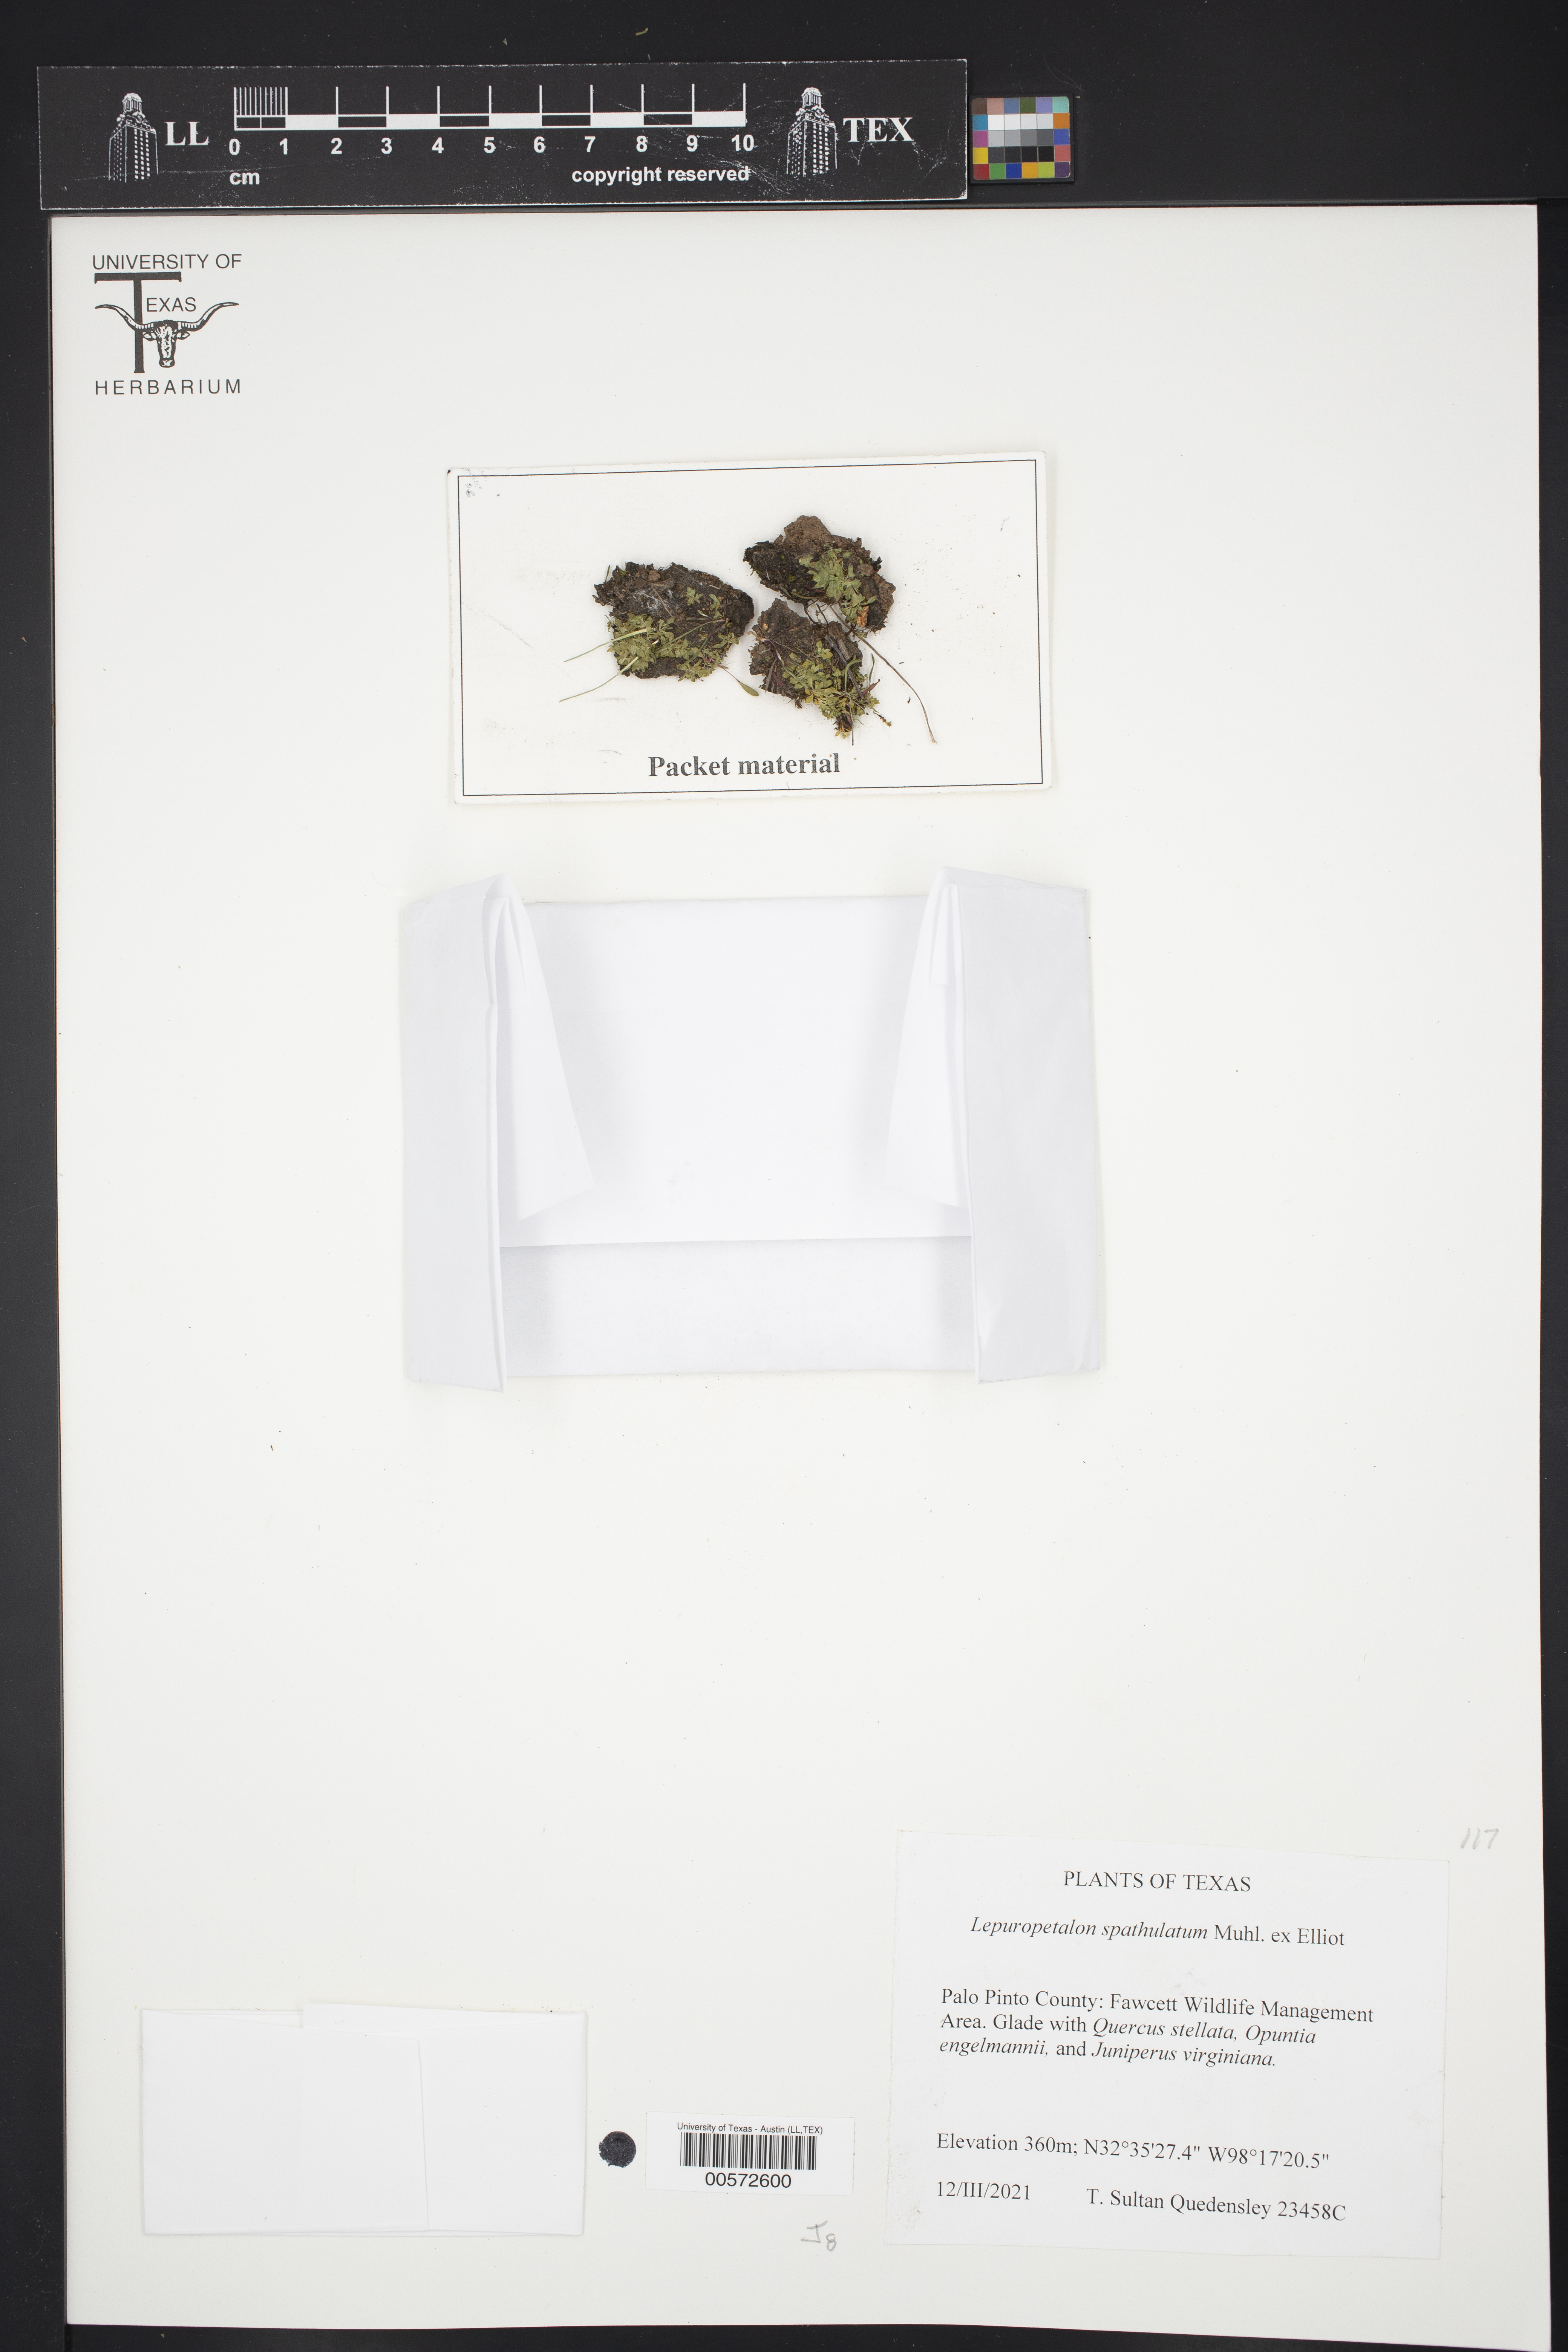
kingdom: Plantae
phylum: Tracheophyta
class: Magnoliopsida
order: Celastrales
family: Parnassiaceae
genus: Lepuropetalon
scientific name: Lepuropetalon spathulatum
